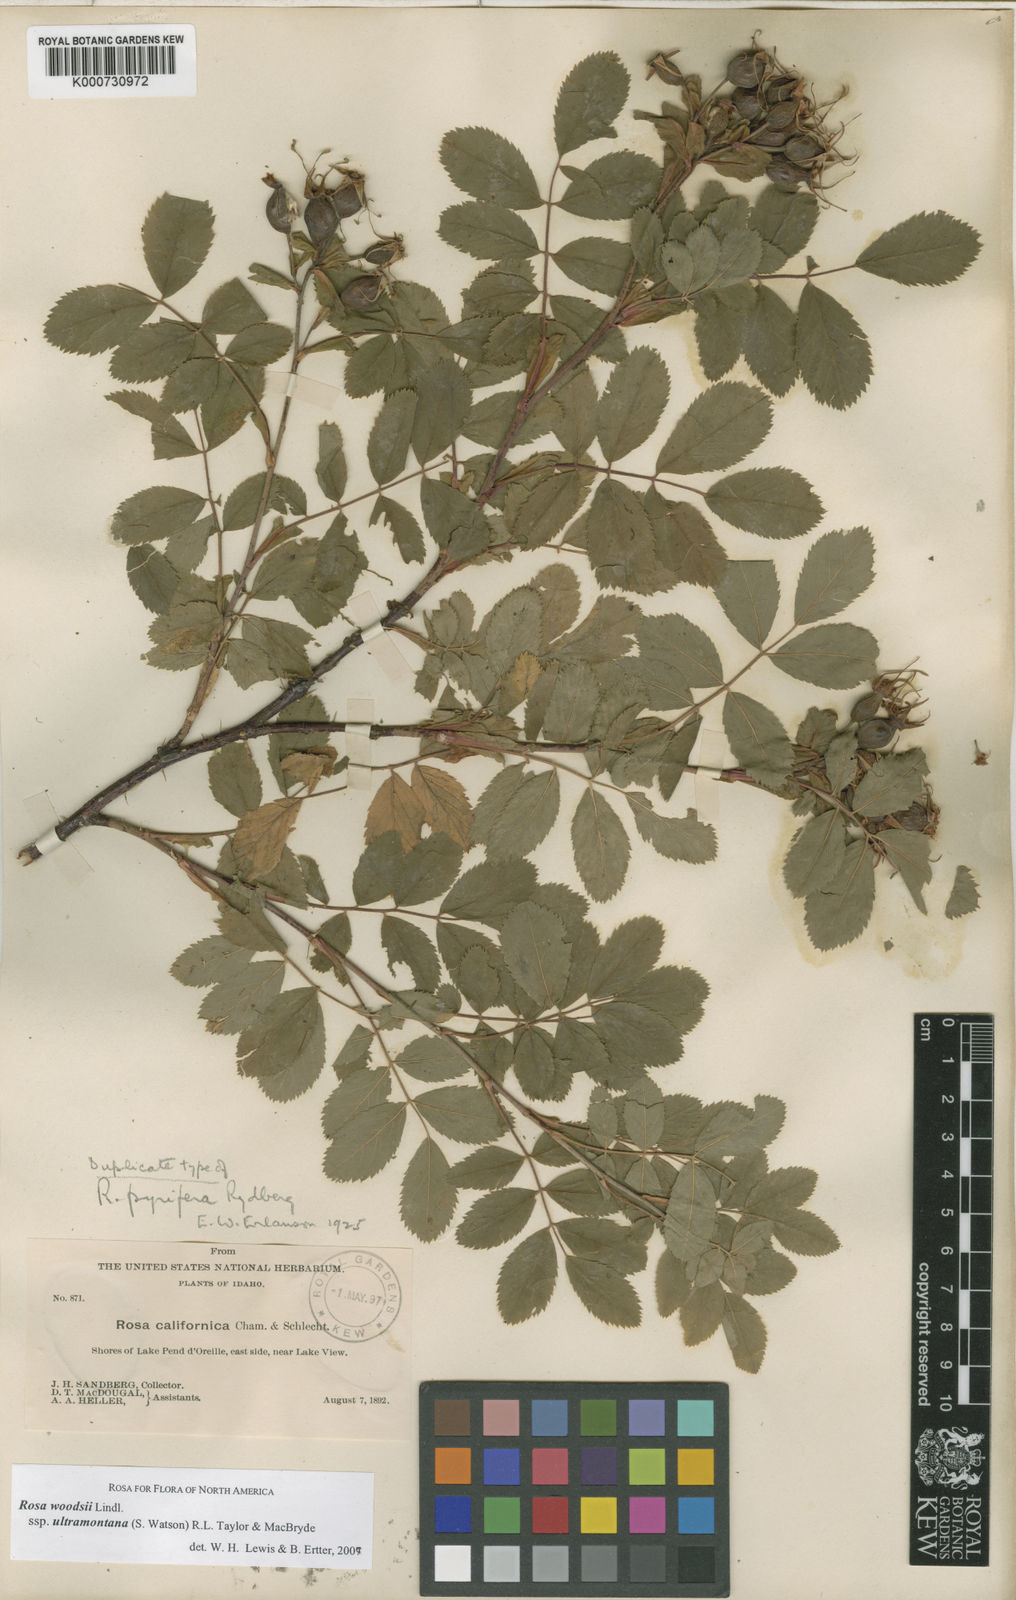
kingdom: Plantae
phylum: Tracheophyta
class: Magnoliopsida
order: Rosales
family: Rosaceae
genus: Rosa
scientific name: Rosa woodsii
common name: Woods's rose
